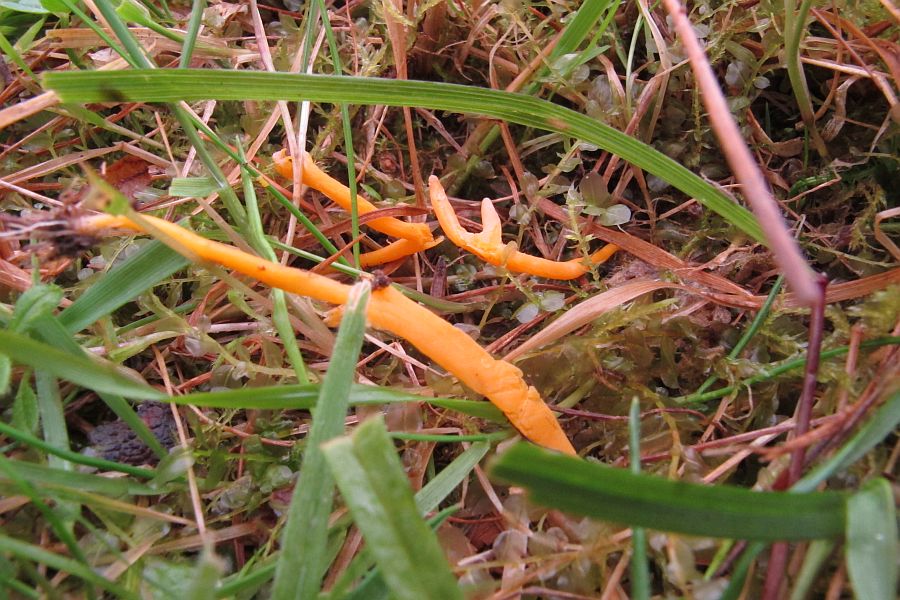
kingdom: Fungi
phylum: Basidiomycota
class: Agaricomycetes
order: Agaricales
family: Clavariaceae
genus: Clavulinopsis
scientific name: Clavulinopsis luteoalba
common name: abrikos-køllesvamp
